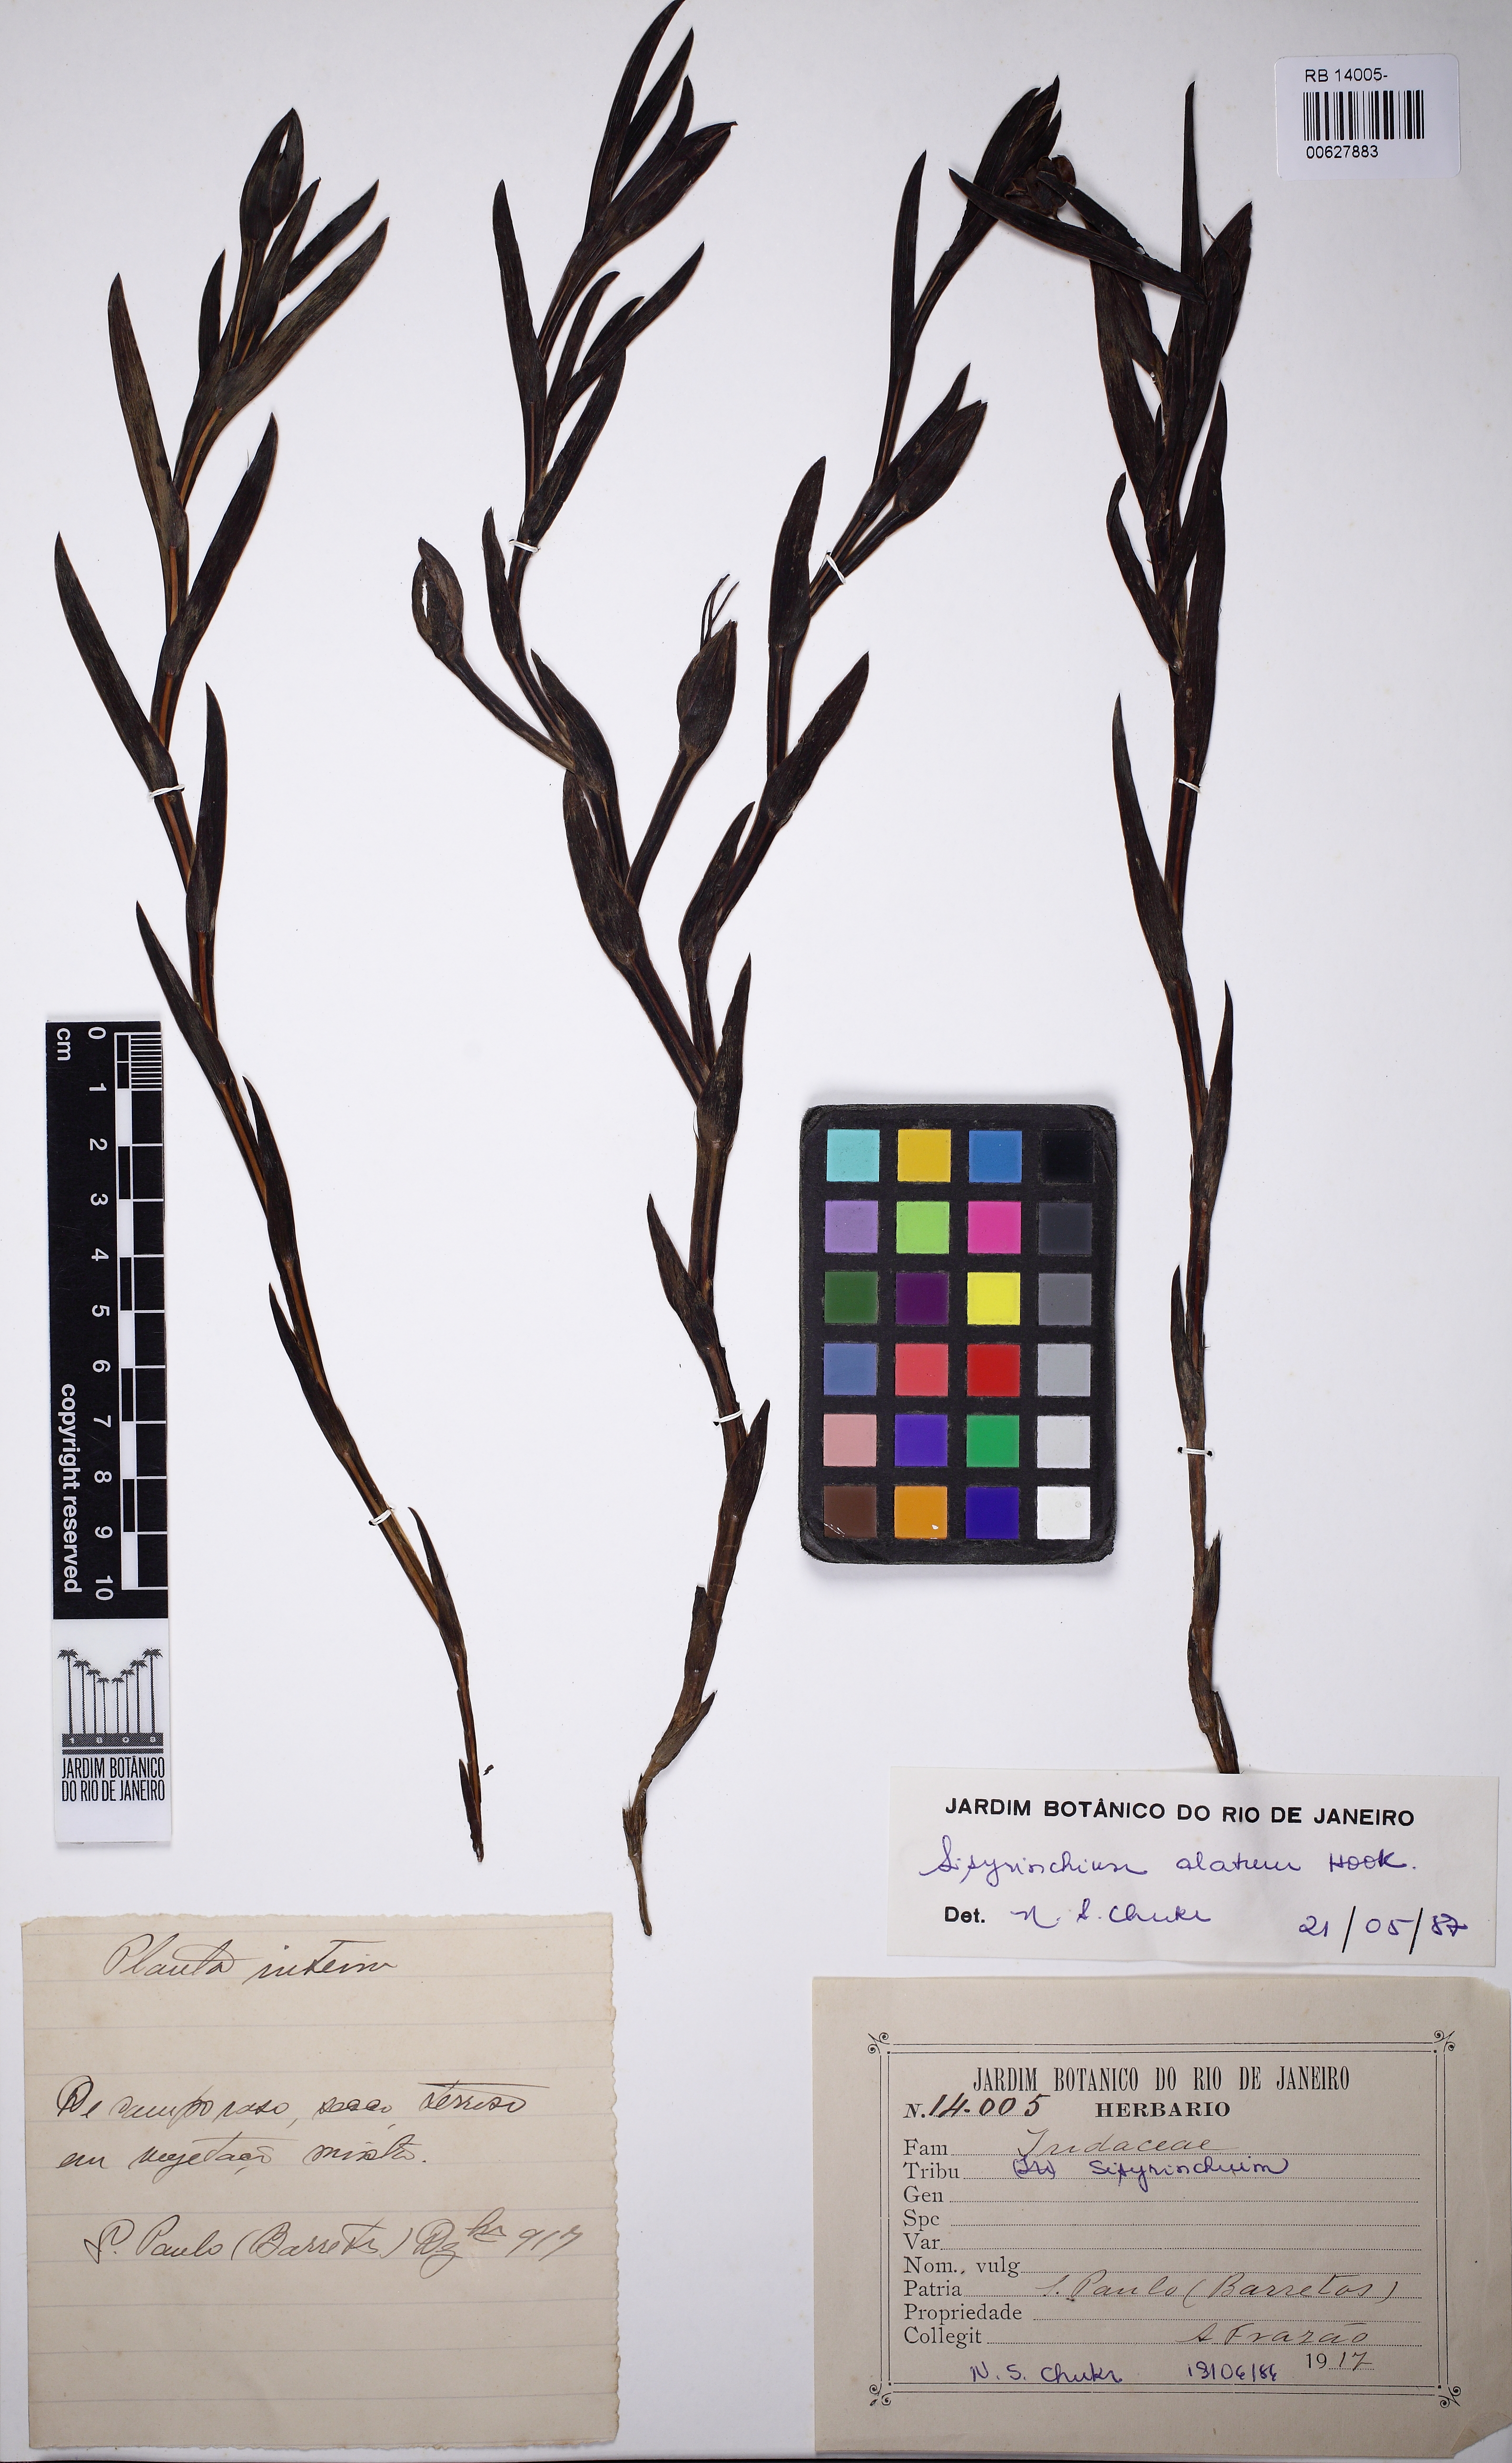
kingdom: Plantae
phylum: Tracheophyta
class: Liliopsida
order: Asparagales
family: Iridaceae
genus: Sisyrinchium
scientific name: Sisyrinchium vaginatum
